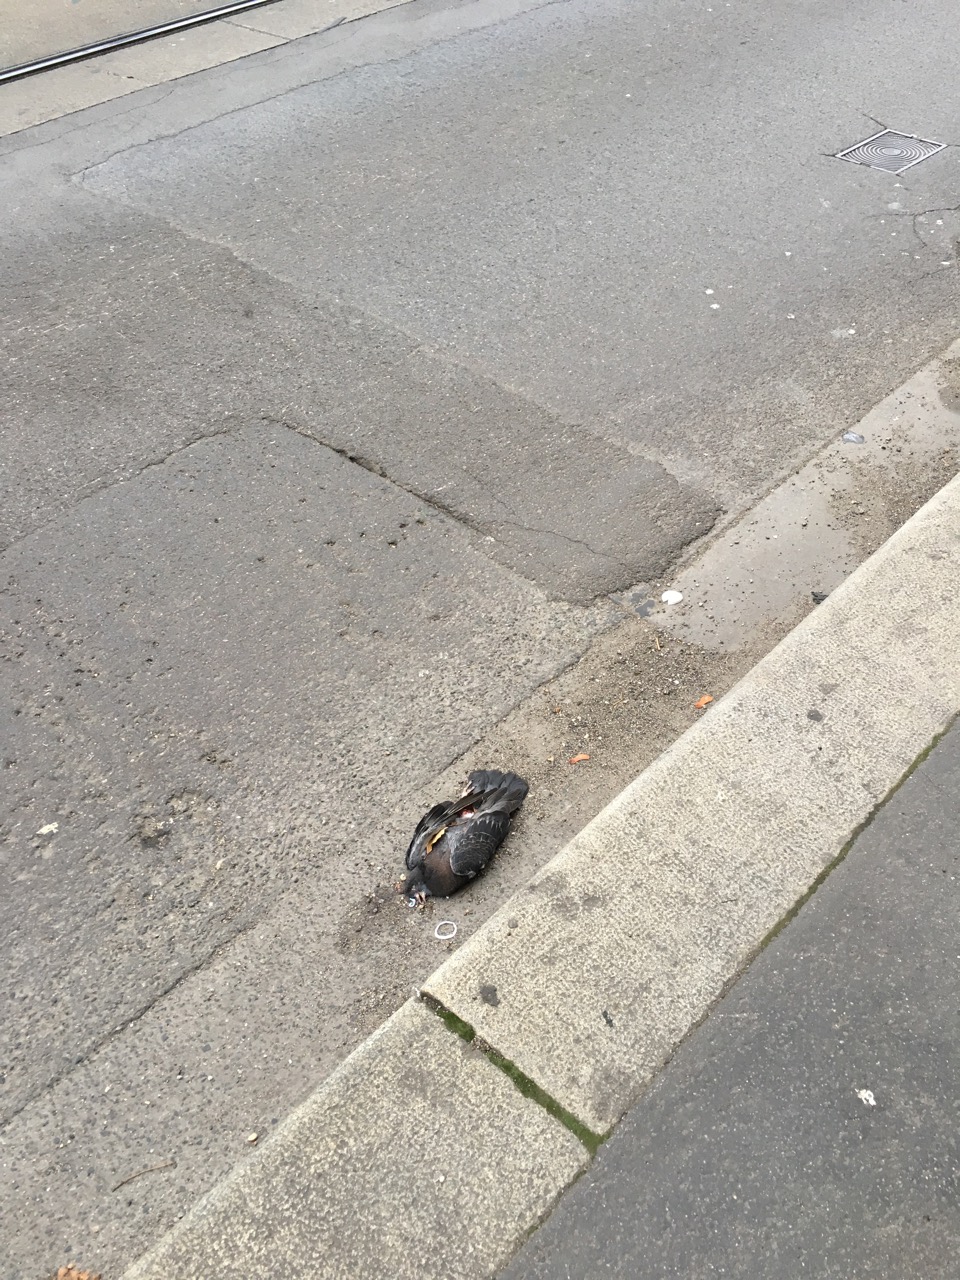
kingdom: Animalia
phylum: Chordata
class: Aves
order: Columbiformes
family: Columbidae
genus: Columba
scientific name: Columba livia
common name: Rock pigeon
